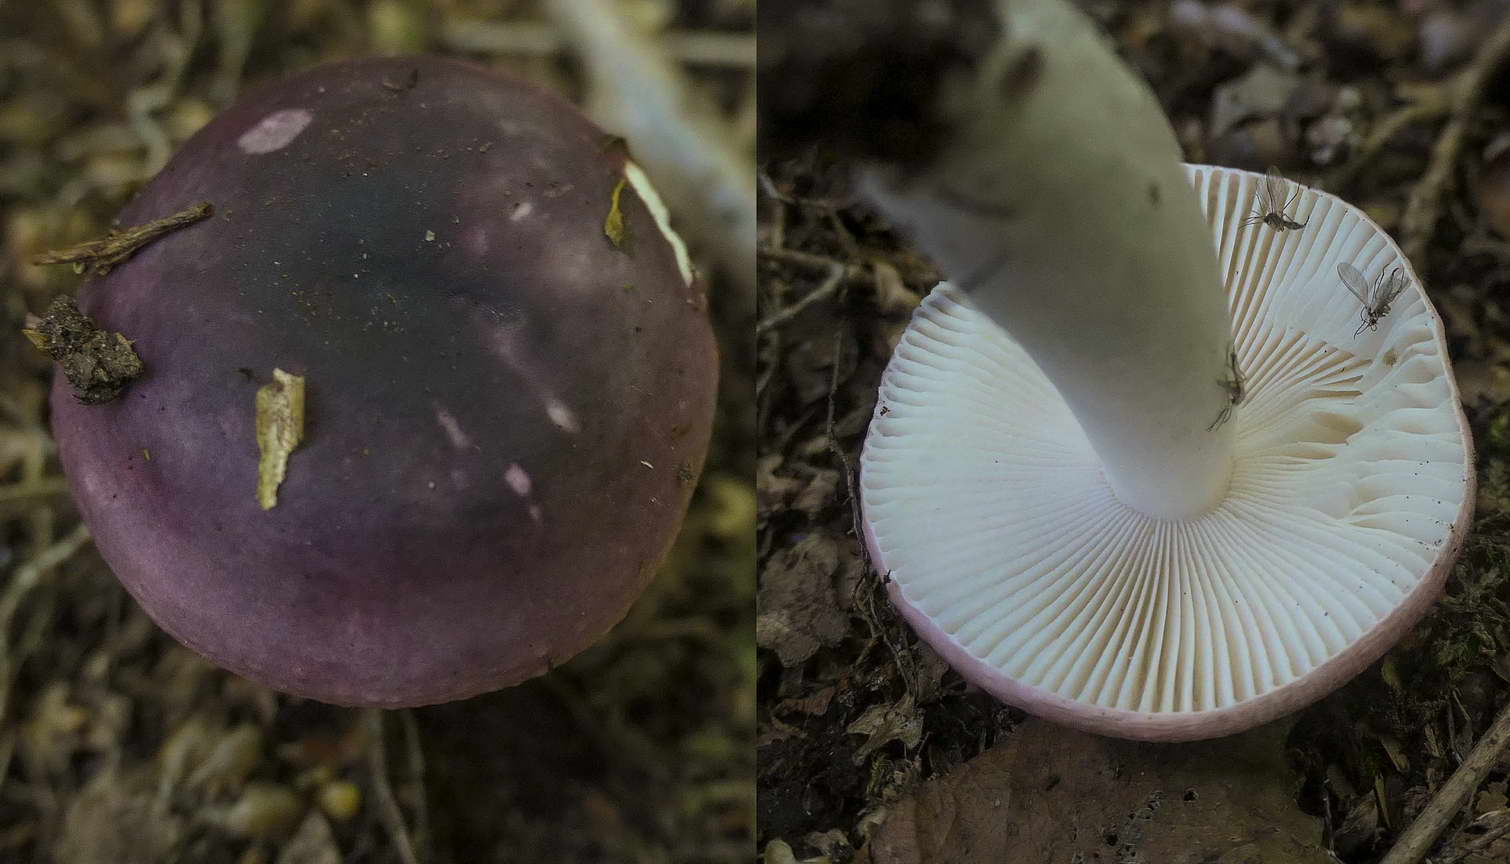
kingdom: Fungi
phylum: Basidiomycota
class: Agaricomycetes
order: Russulales
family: Russulaceae
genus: Russula
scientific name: Russula fragilis
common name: savbladet skørhat
